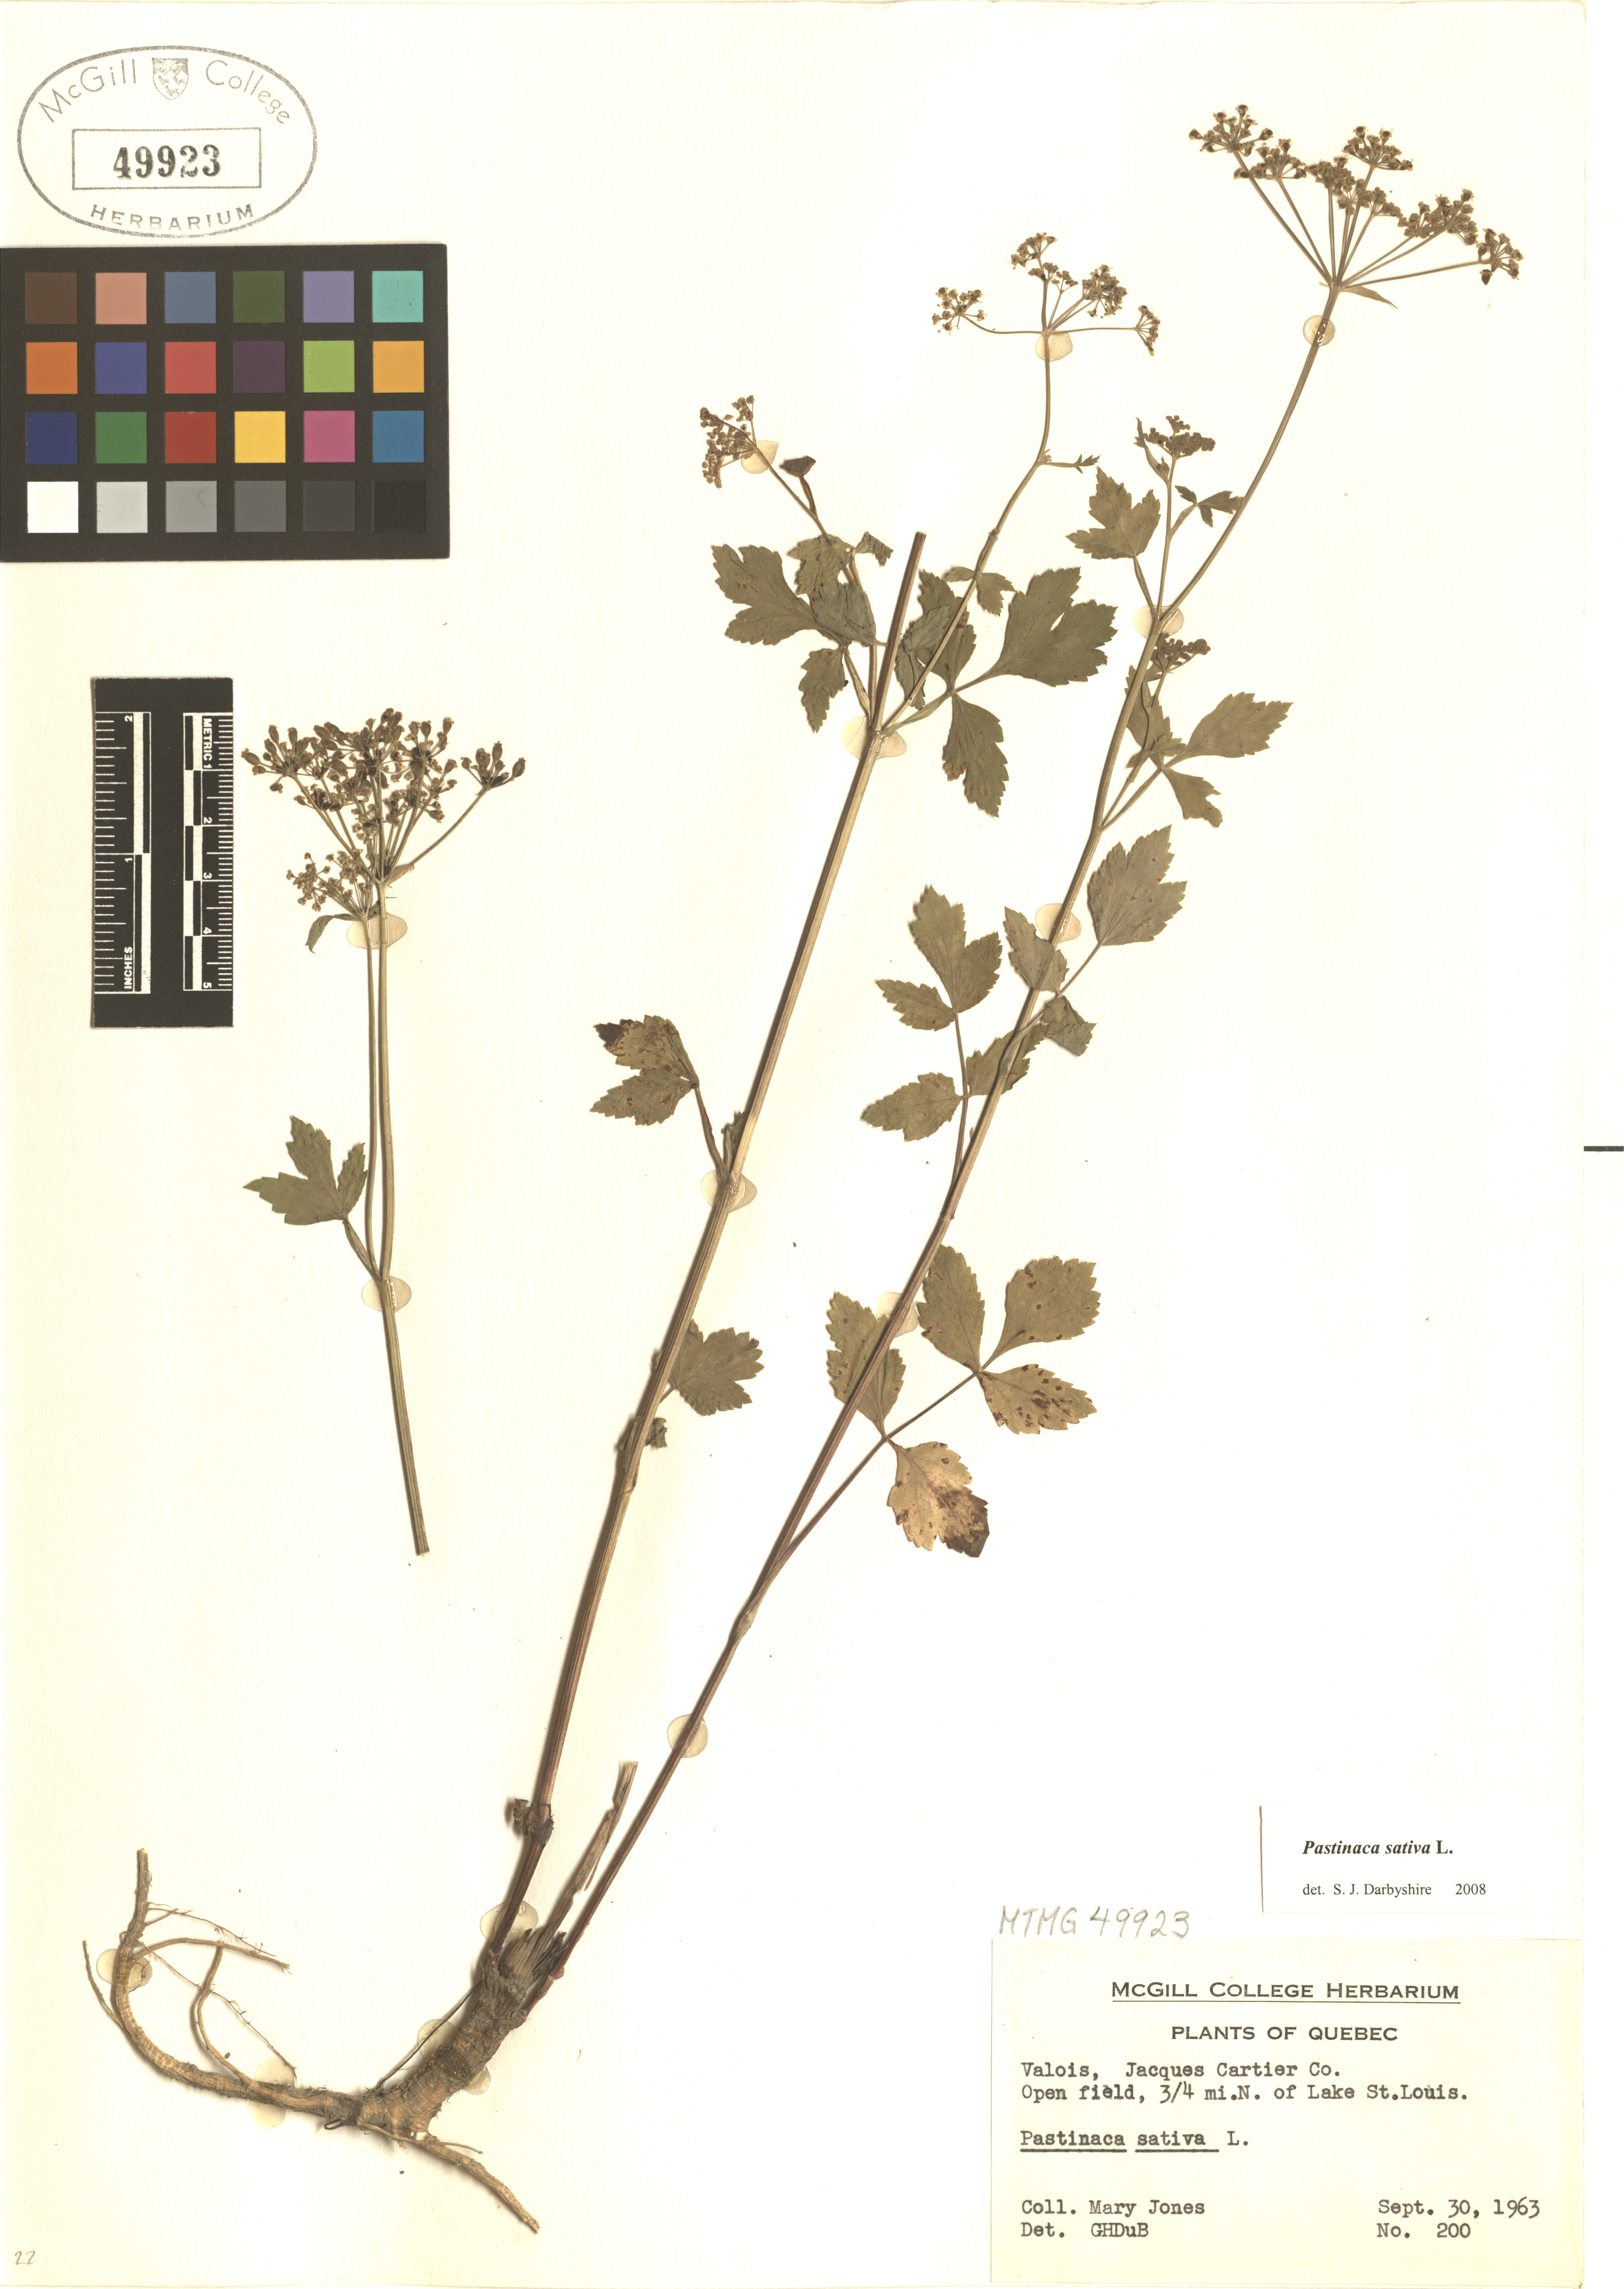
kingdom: Plantae
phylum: Tracheophyta
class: Magnoliopsida
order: Apiales
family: Apiaceae
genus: Pastinaca
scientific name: Pastinaca sativa
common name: Wild parsnip
